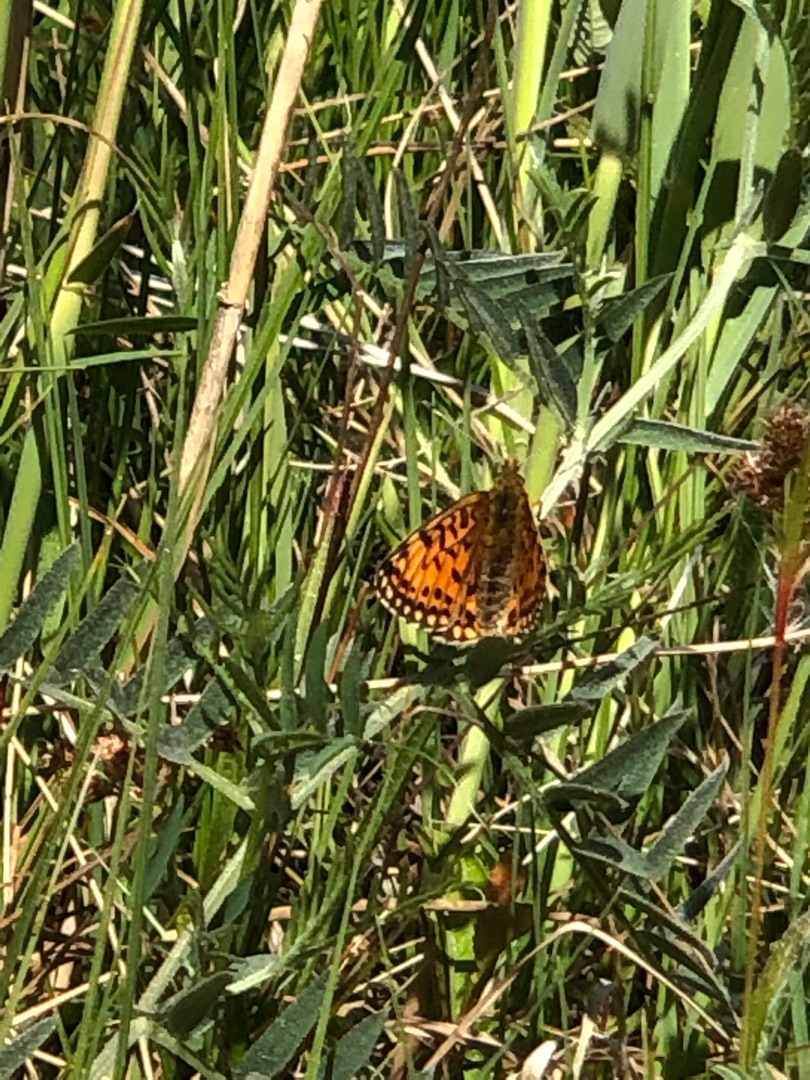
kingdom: Animalia
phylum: Arthropoda
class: Insecta
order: Lepidoptera
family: Nymphalidae
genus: Boloria
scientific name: Boloria selene
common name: Brunlig perlemorsommerfugl
